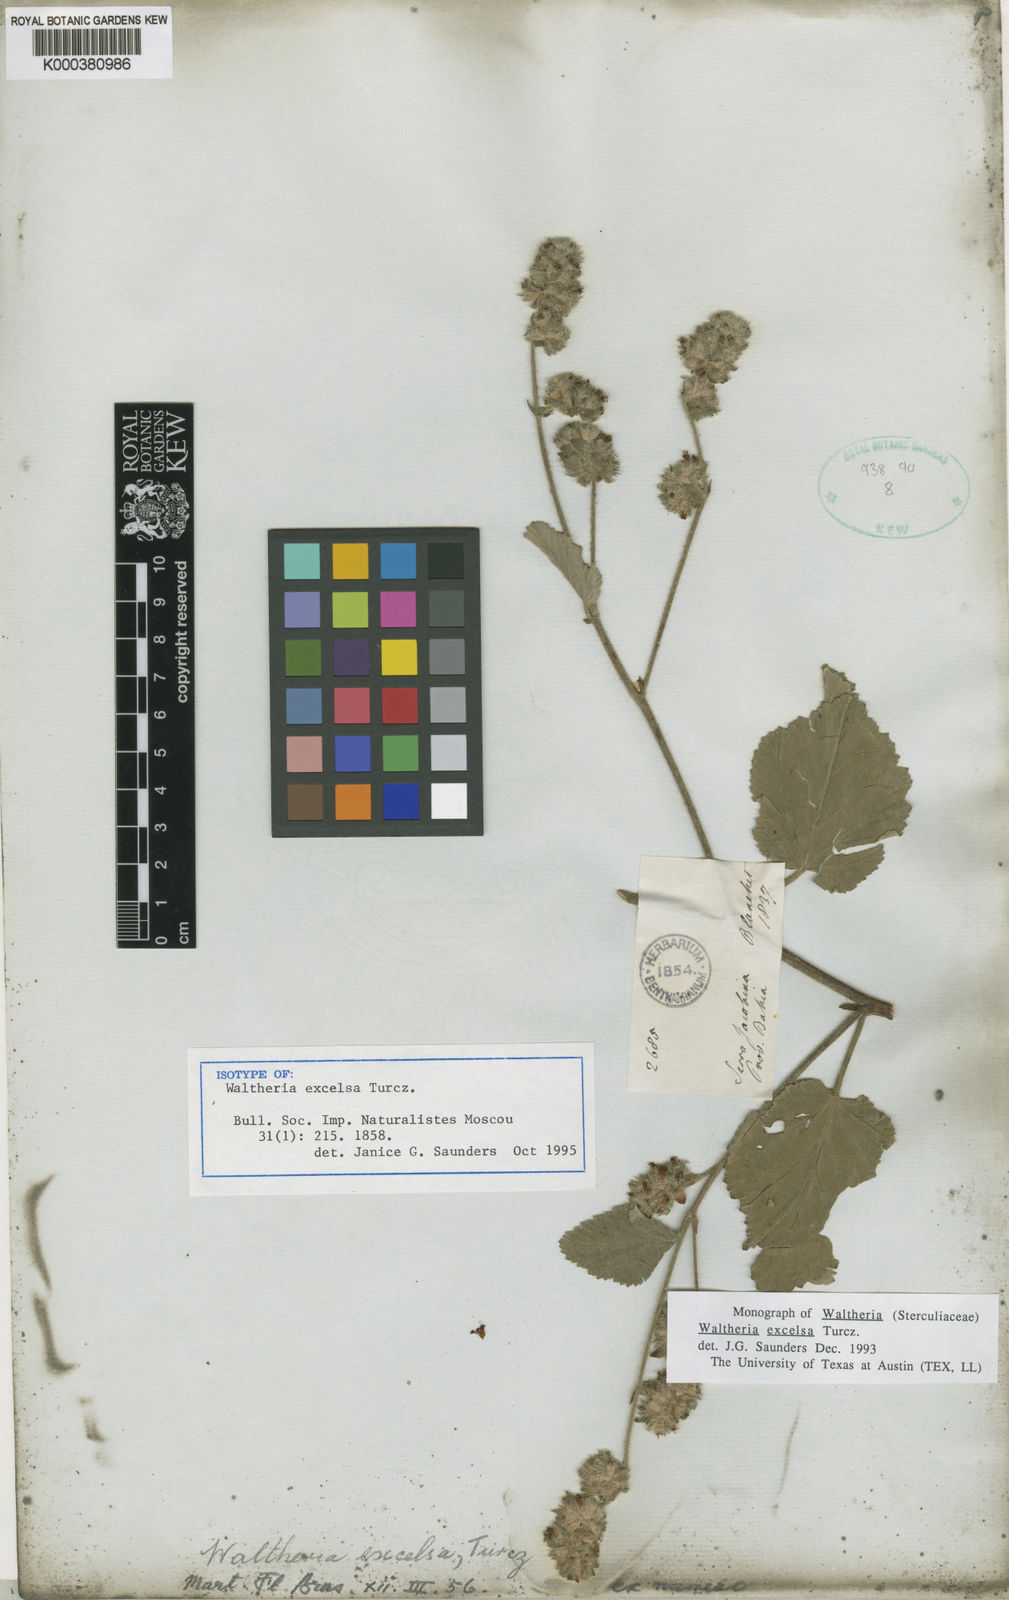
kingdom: Plantae
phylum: Tracheophyta
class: Magnoliopsida
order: Malvales
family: Malvaceae
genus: Waltheria
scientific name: Waltheria excelsa
